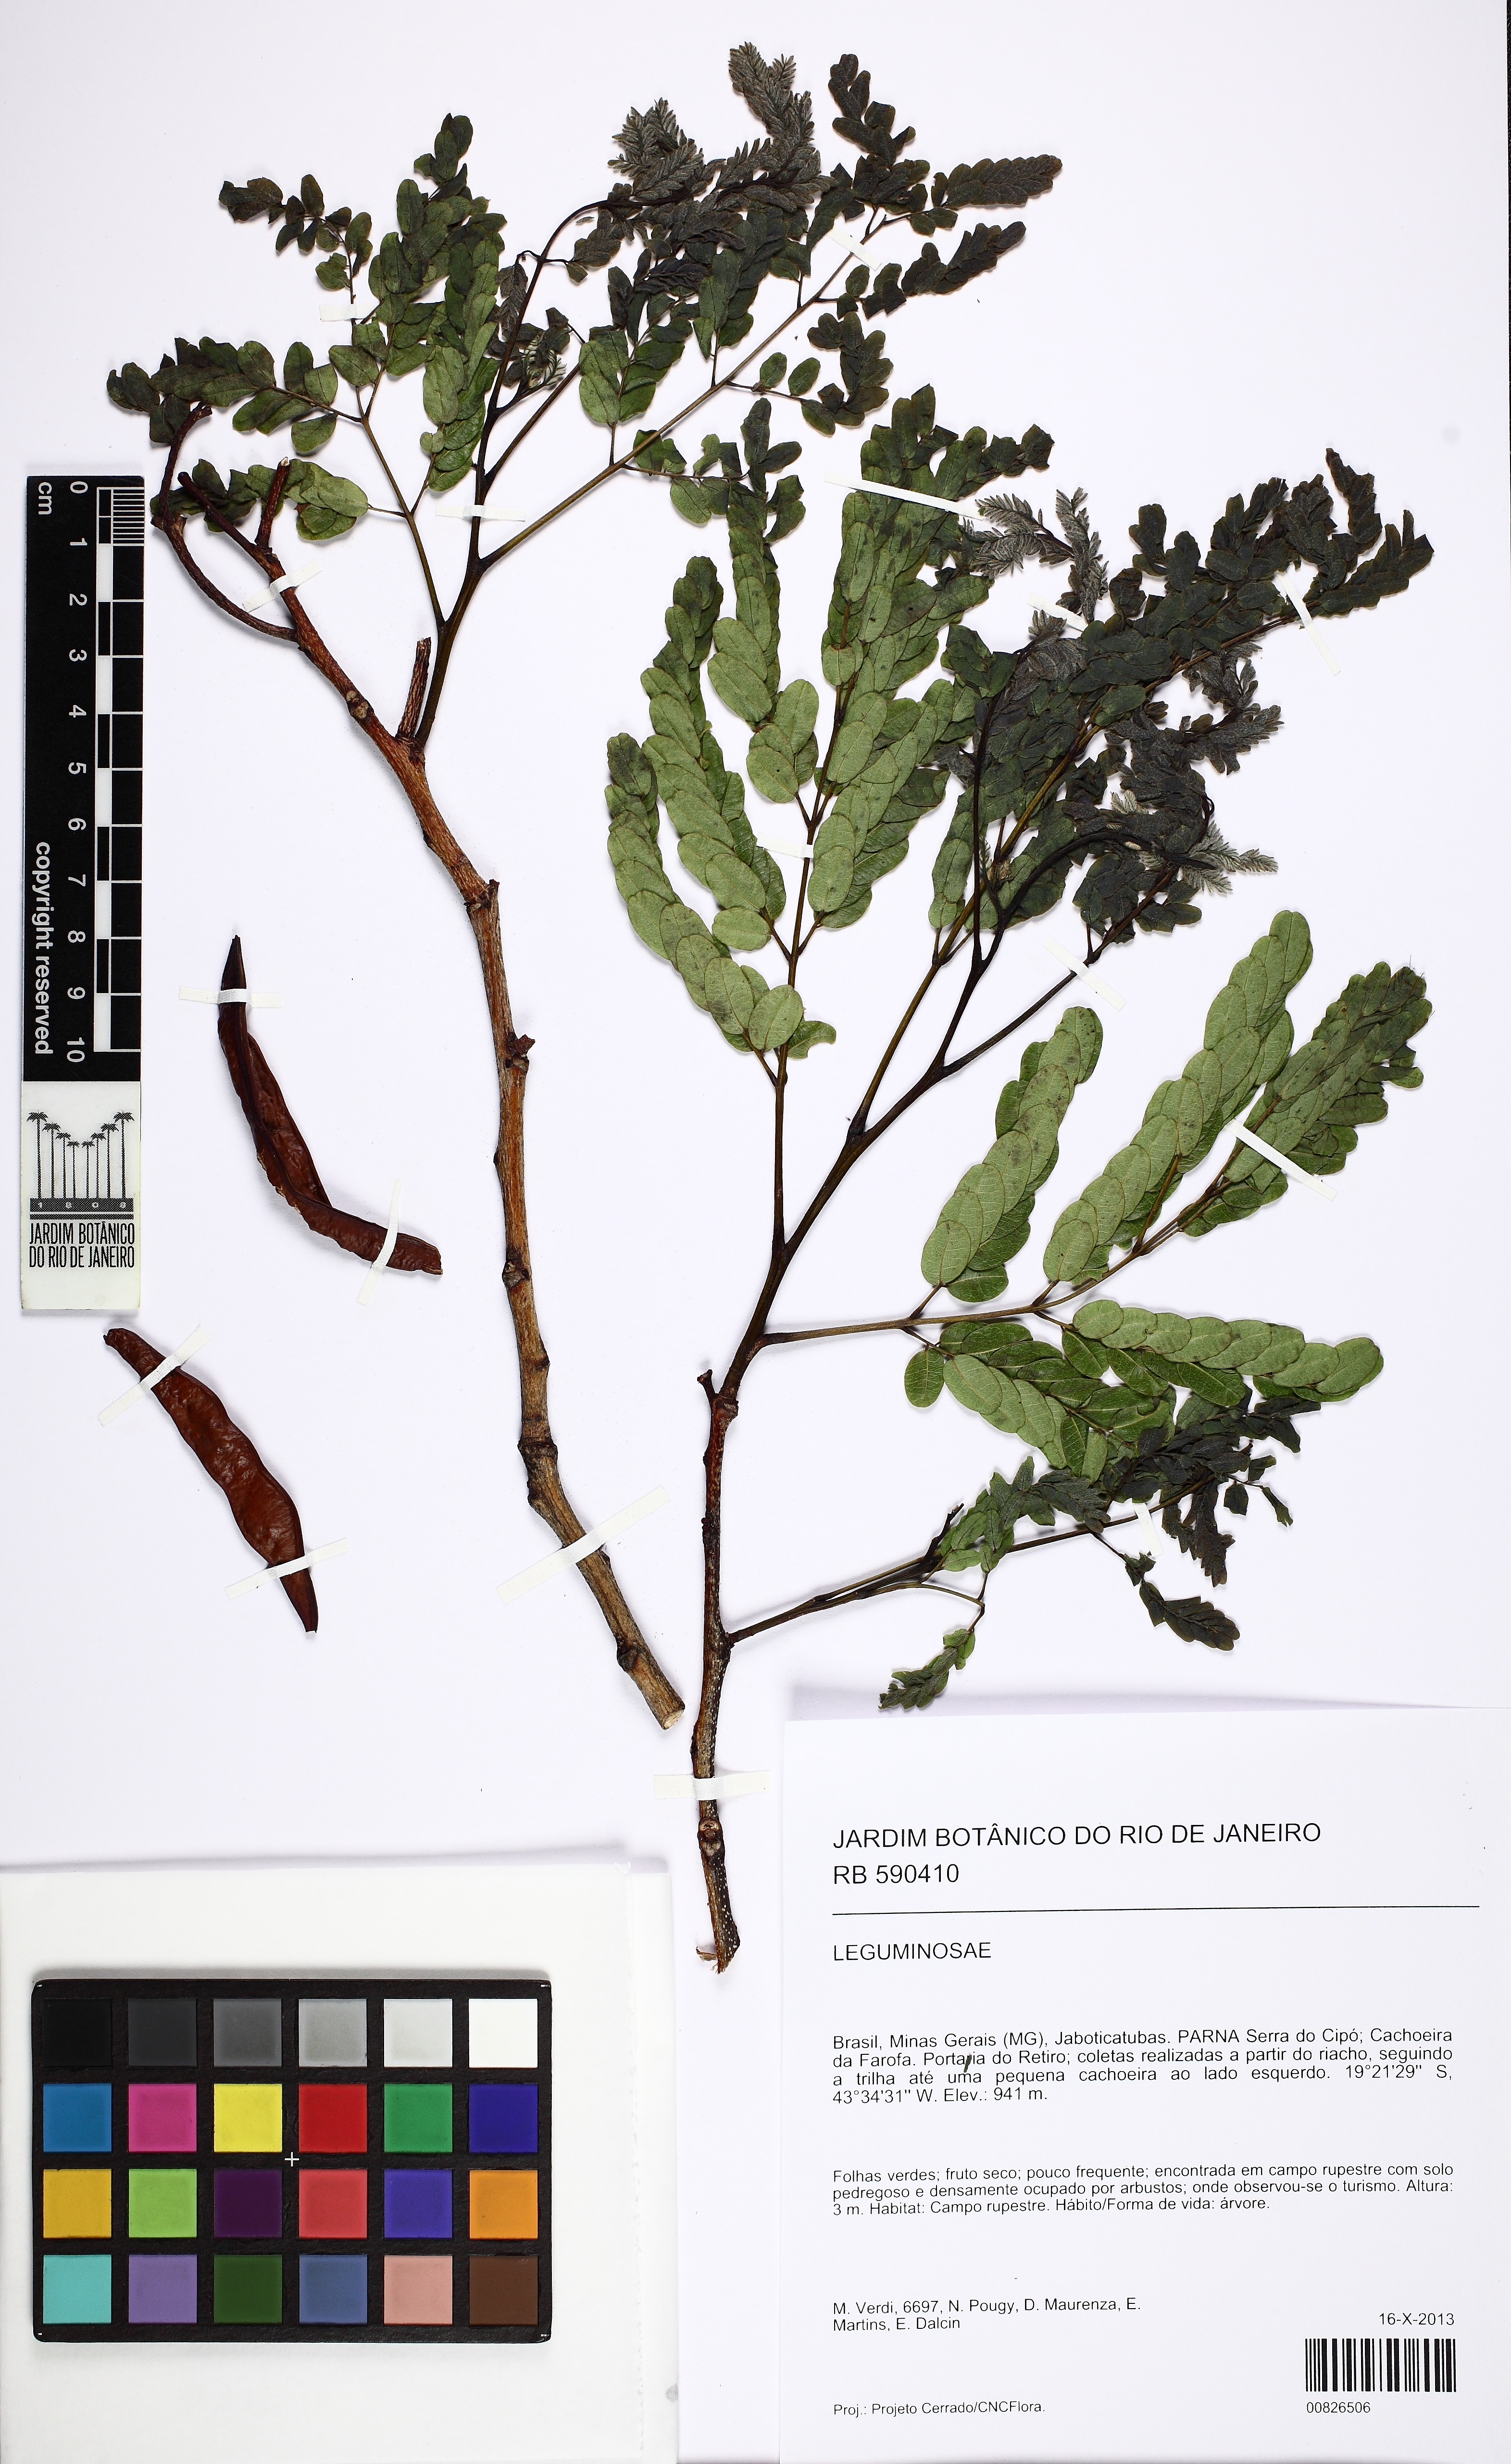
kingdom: Plantae
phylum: Tracheophyta
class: Magnoliopsida
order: Fabales
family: Fabaceae
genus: Stryphnodendron
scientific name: Stryphnodendron
